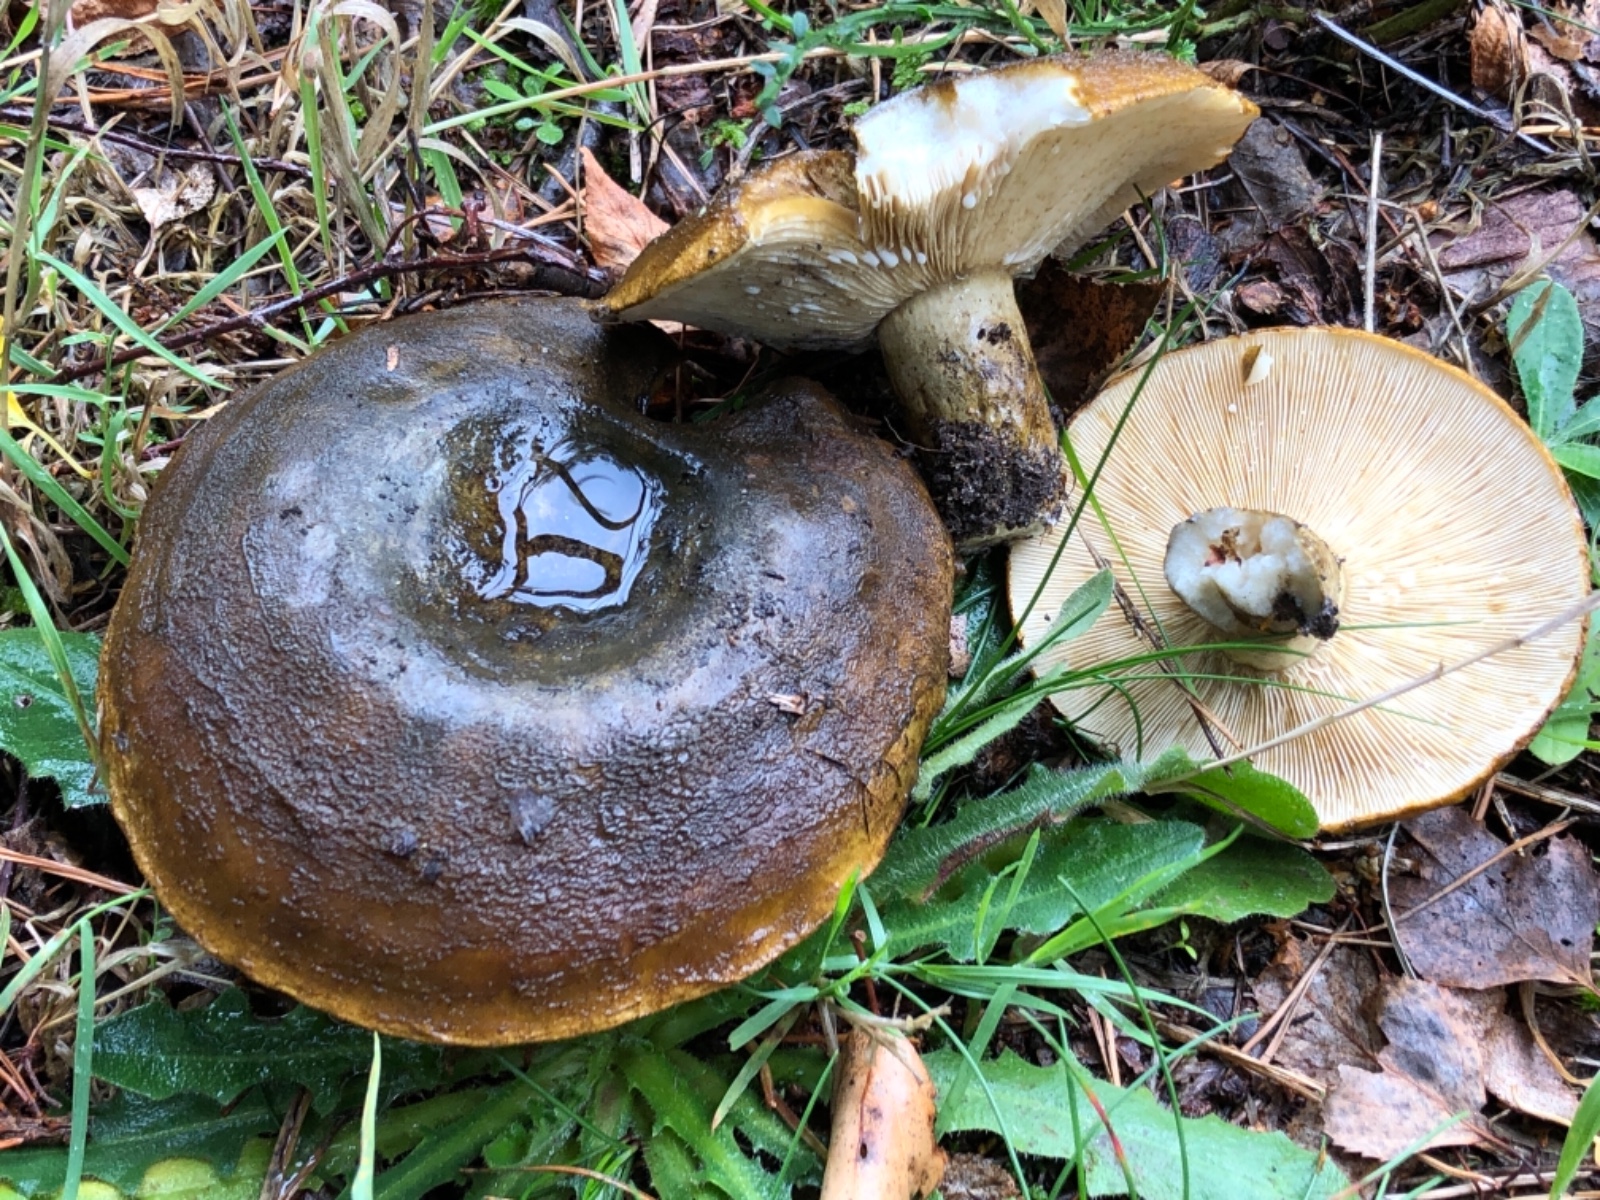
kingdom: Fungi
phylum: Basidiomycota
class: Agaricomycetes
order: Russulales
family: Russulaceae
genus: Lactarius
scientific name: Lactarius necator
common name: manddraber-mælkehat
